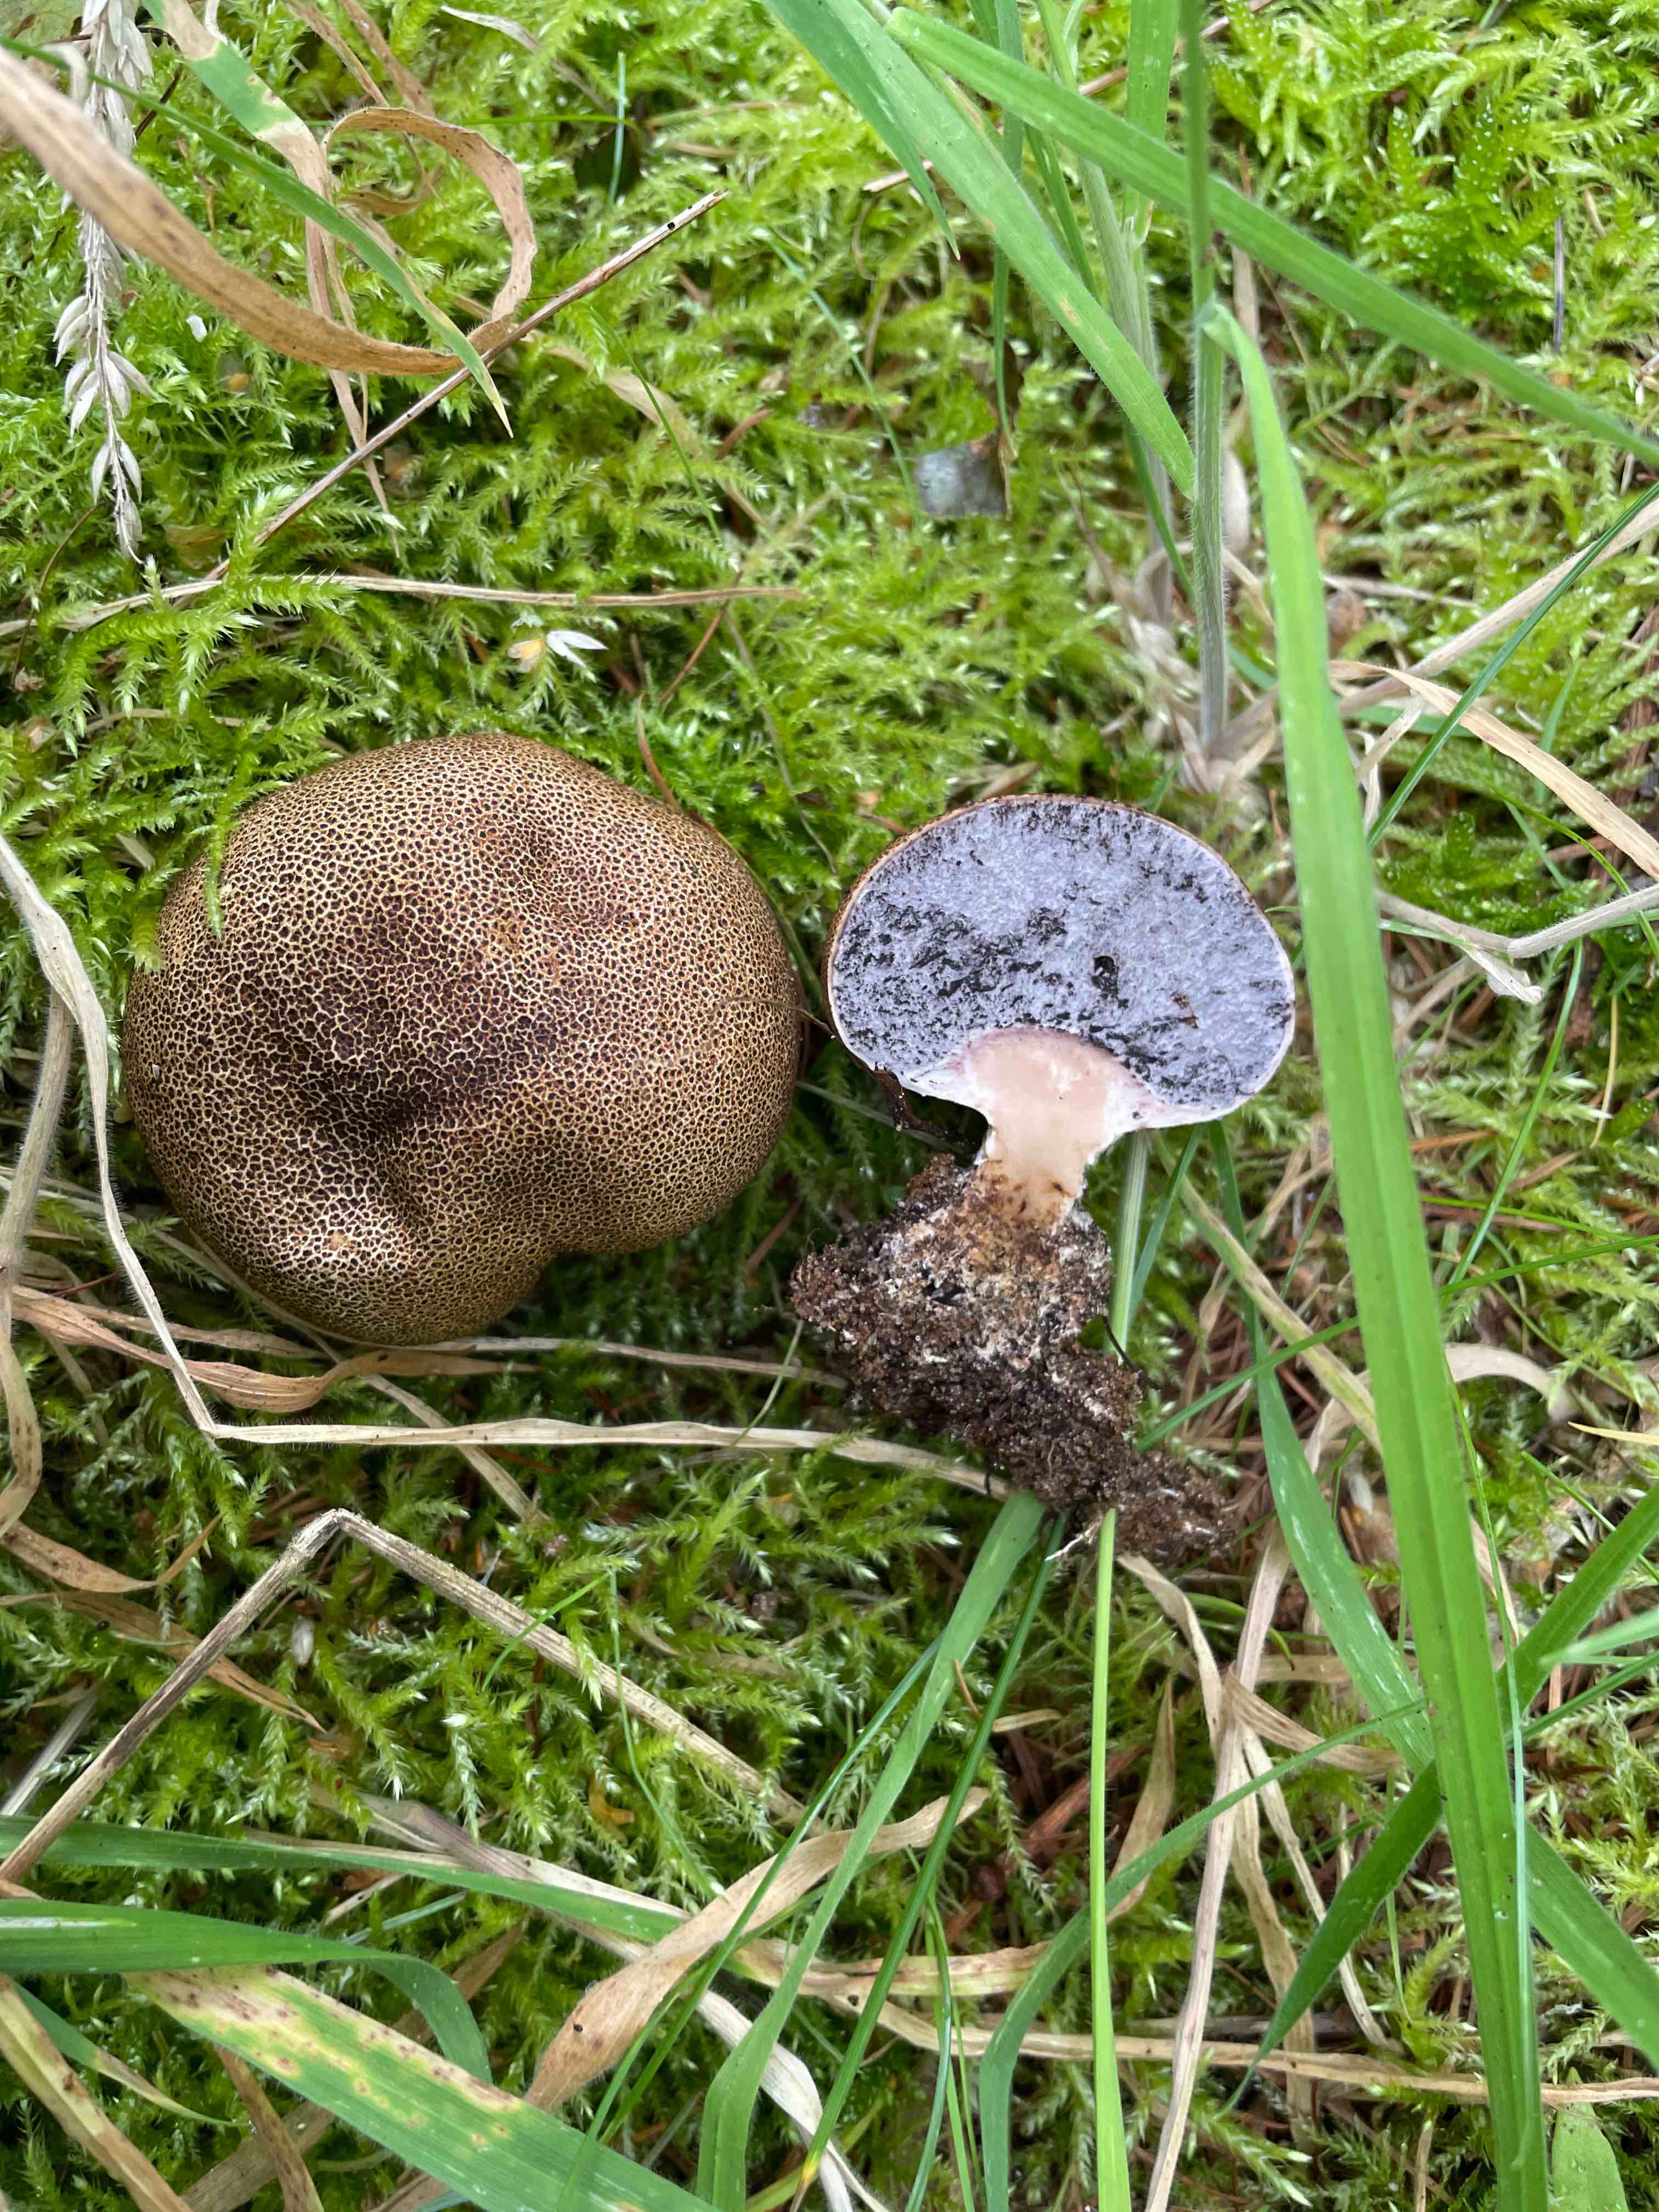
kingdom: Fungi
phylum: Basidiomycota
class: Agaricomycetes
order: Boletales
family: Sclerodermataceae
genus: Scleroderma
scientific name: Scleroderma verrucosum
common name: stilket bruskbold
